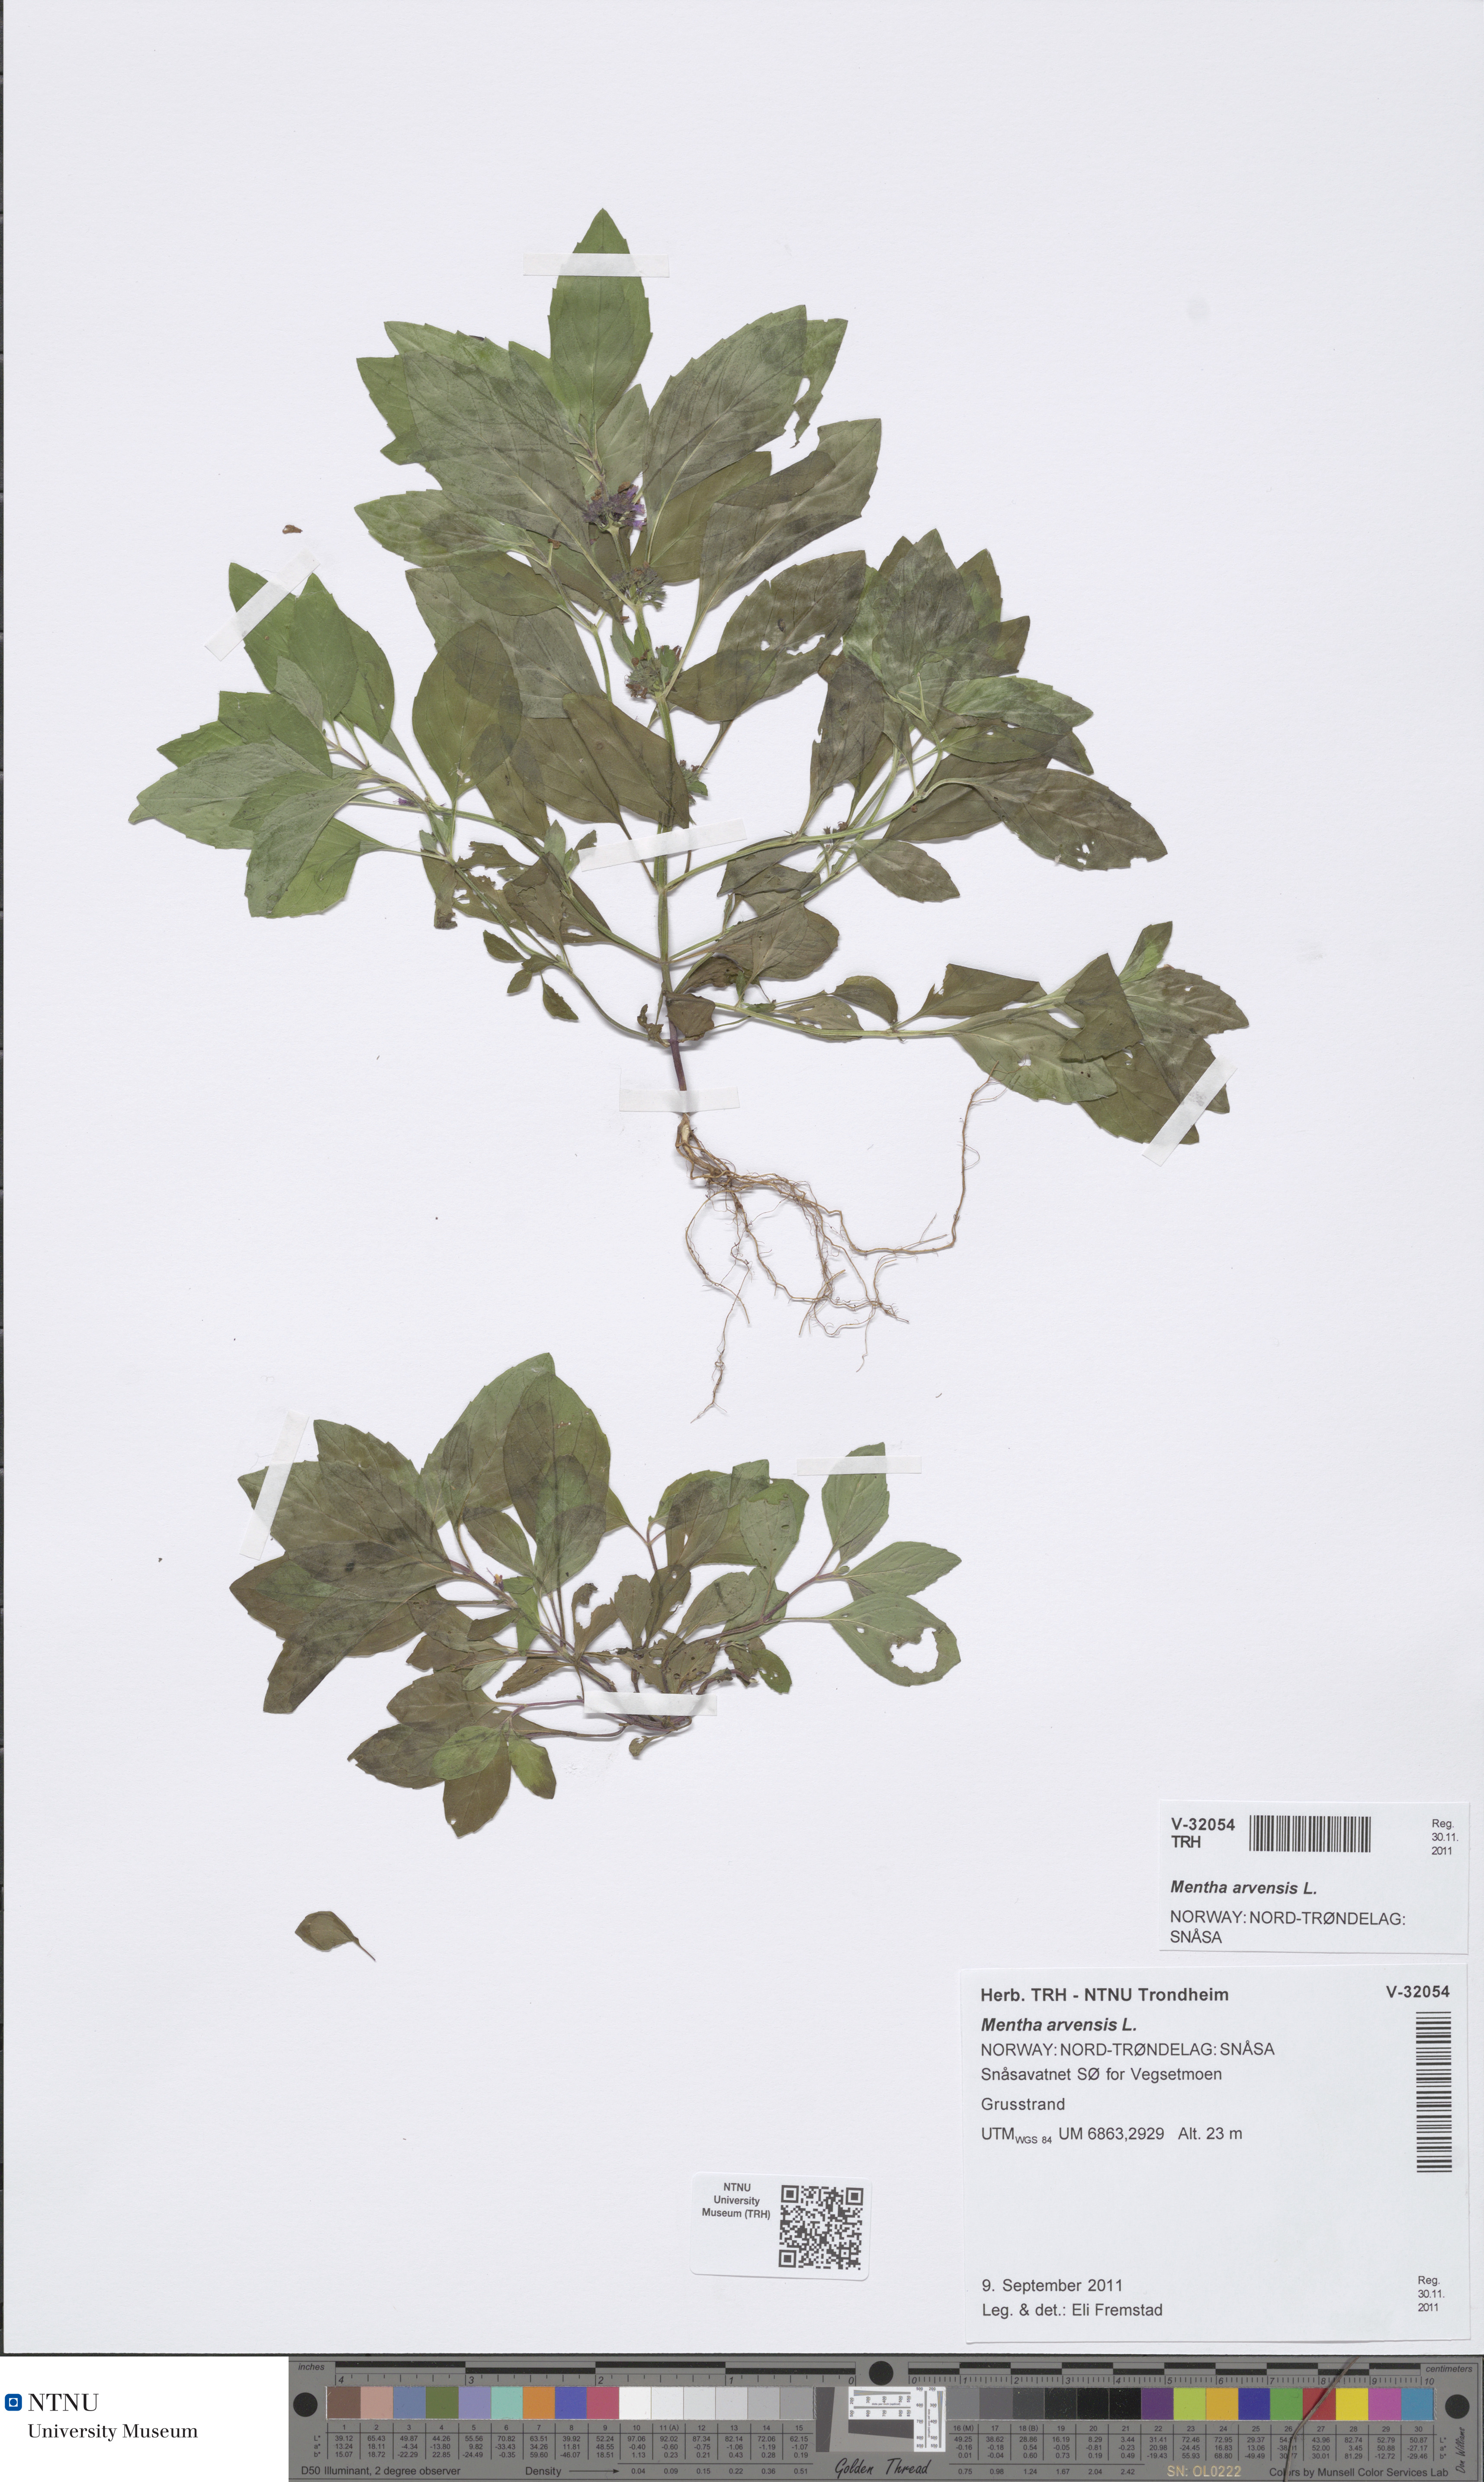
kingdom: Plantae
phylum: Tracheophyta
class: Magnoliopsida
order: Lamiales
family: Lamiaceae
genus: Mentha
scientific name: Mentha arvensis
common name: Corn mint
